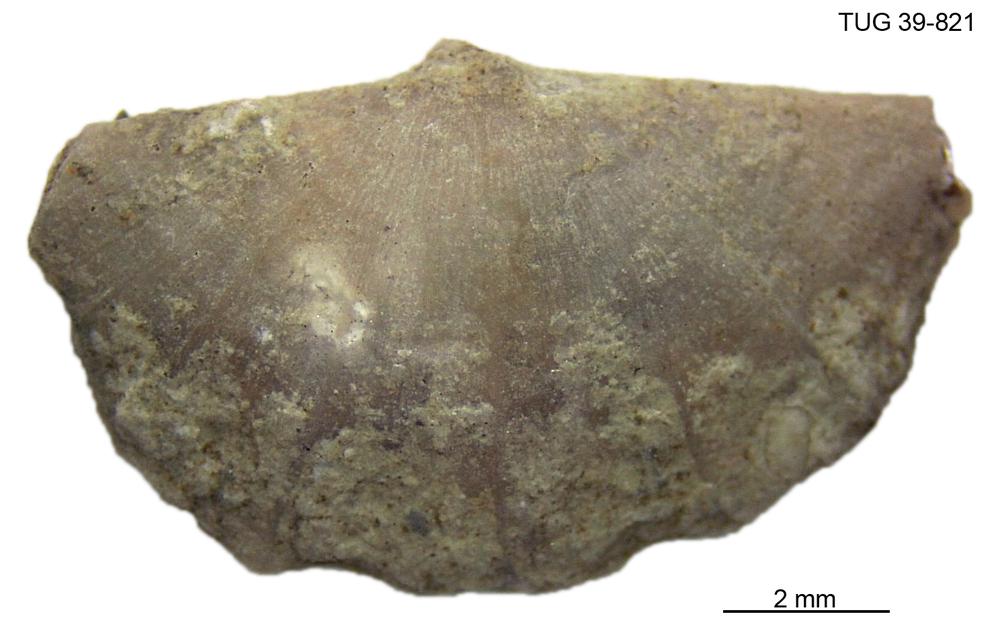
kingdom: Animalia
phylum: Brachiopoda
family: Sowerbyellidae
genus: Sowerbyella
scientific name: Sowerbyella
